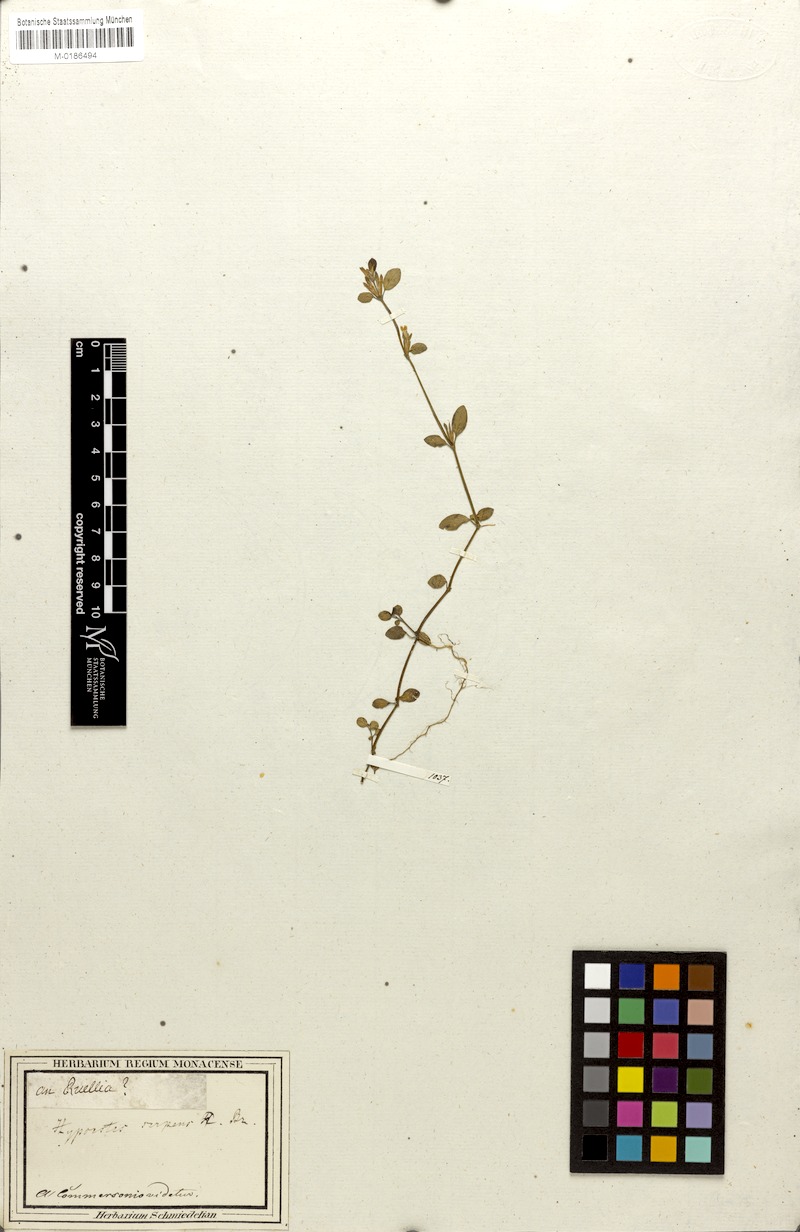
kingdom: Plantae
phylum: Tracheophyta
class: Magnoliopsida
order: Lamiales
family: Acanthaceae
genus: Hypoestes
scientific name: Hypoestes serpens
